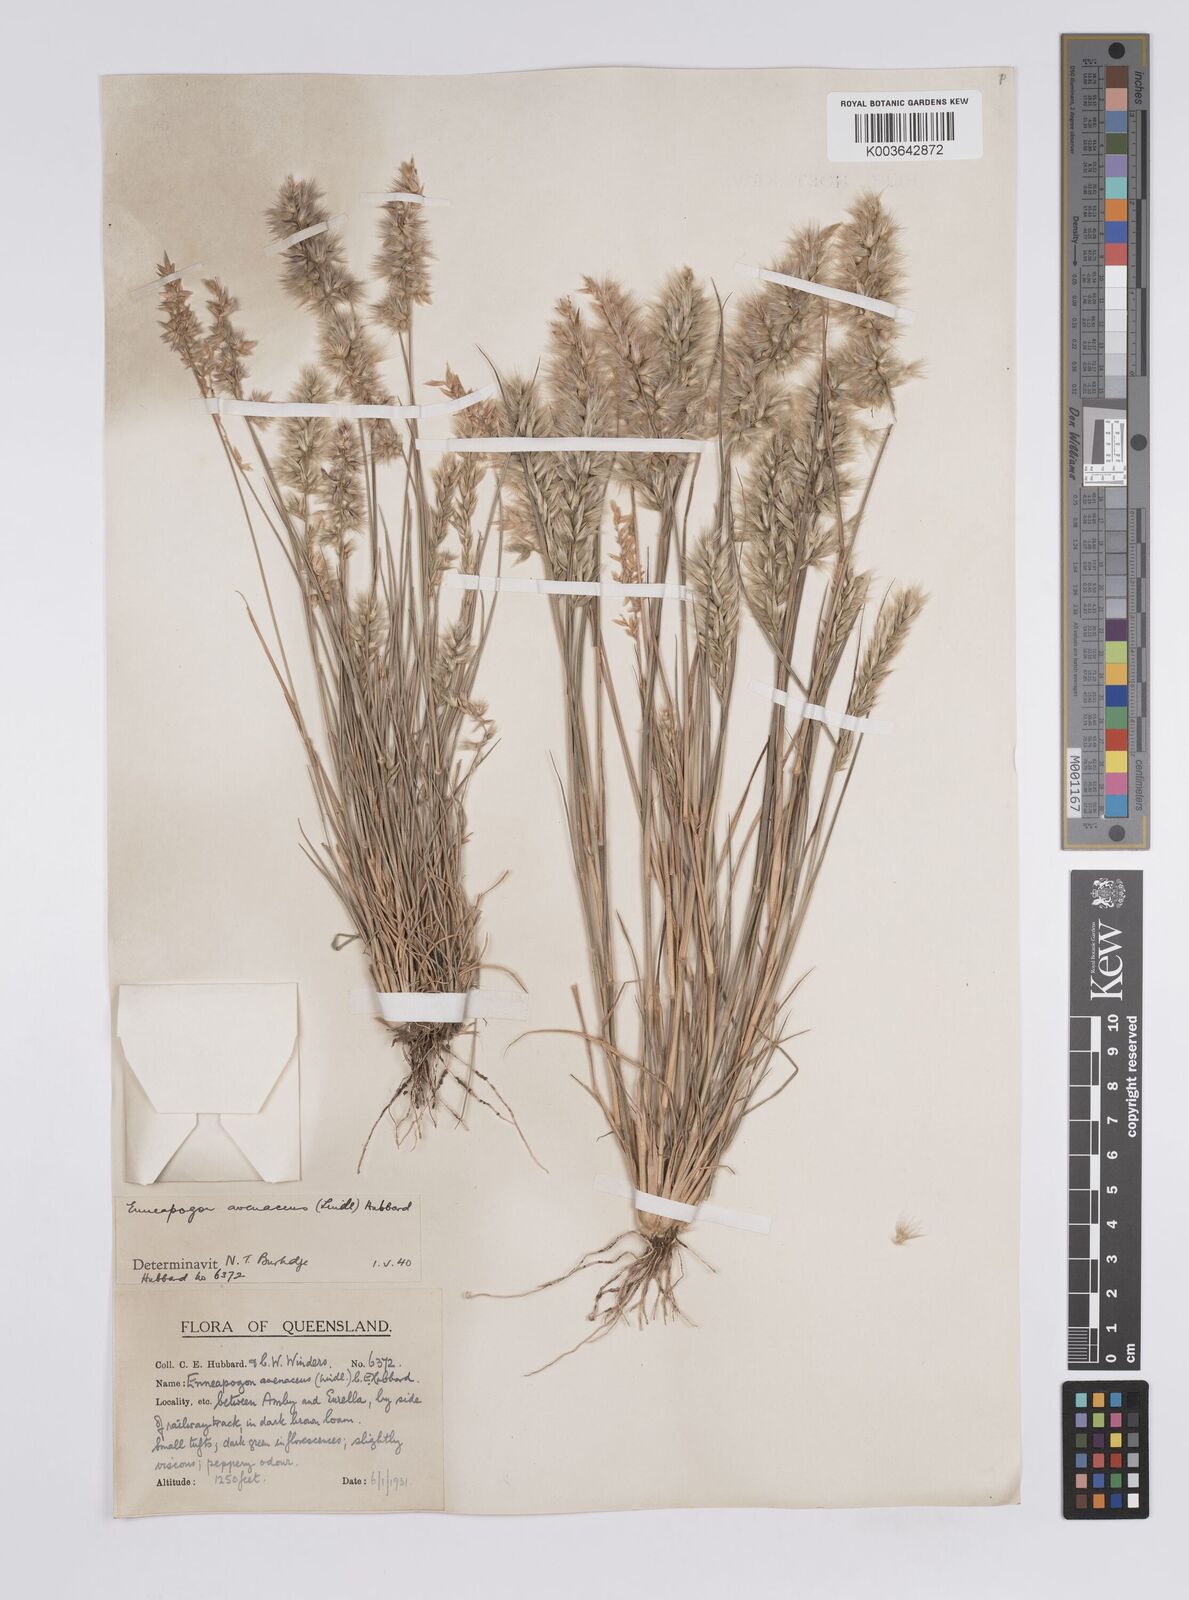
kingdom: Plantae
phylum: Tracheophyta
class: Liliopsida
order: Poales
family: Poaceae
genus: Enneapogon
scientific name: Enneapogon avenaceus
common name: Hairy oat grass
